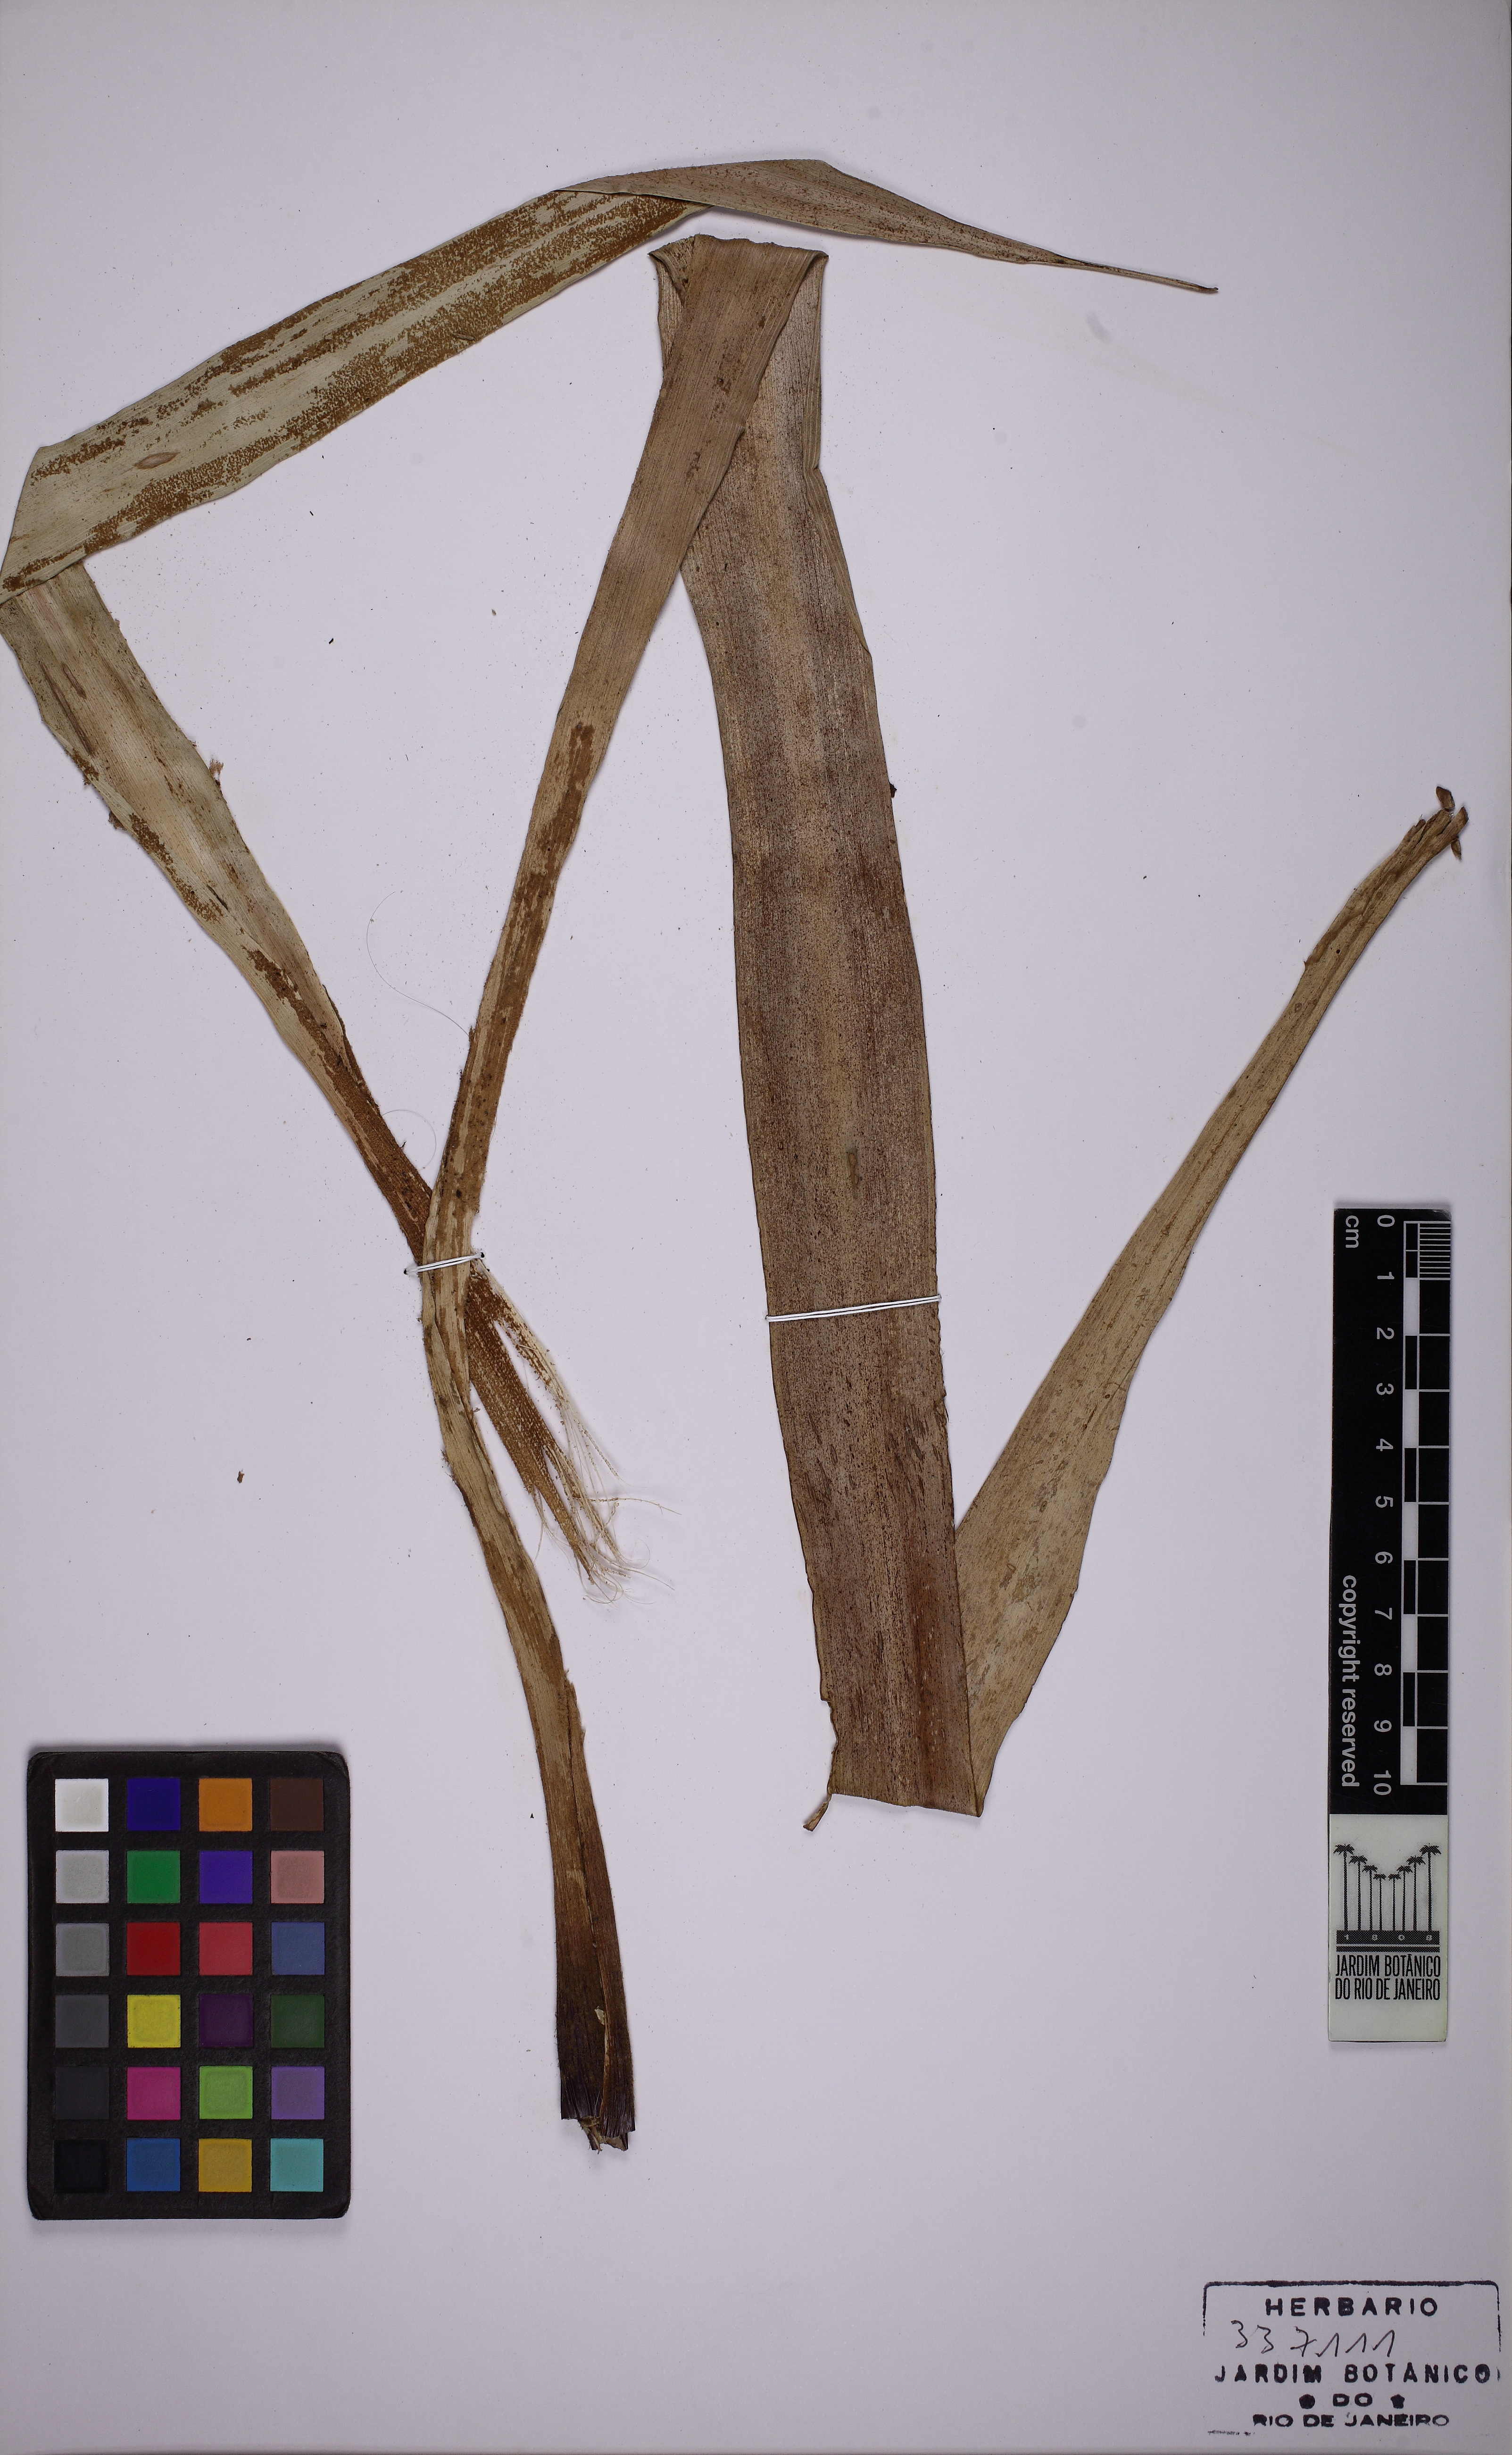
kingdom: Plantae
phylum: Tracheophyta
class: Liliopsida
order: Poales
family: Bromeliaceae
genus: Pitcairnia
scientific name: Pitcairnia flammea
